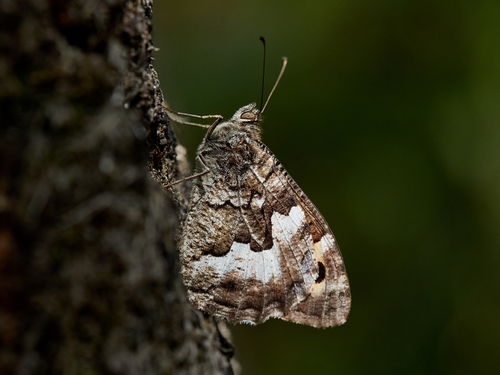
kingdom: Animalia
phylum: Arthropoda
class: Insecta
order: Lepidoptera
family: Nymphalidae
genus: Hipparchia
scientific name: Hipparchia semele
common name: Grayling
